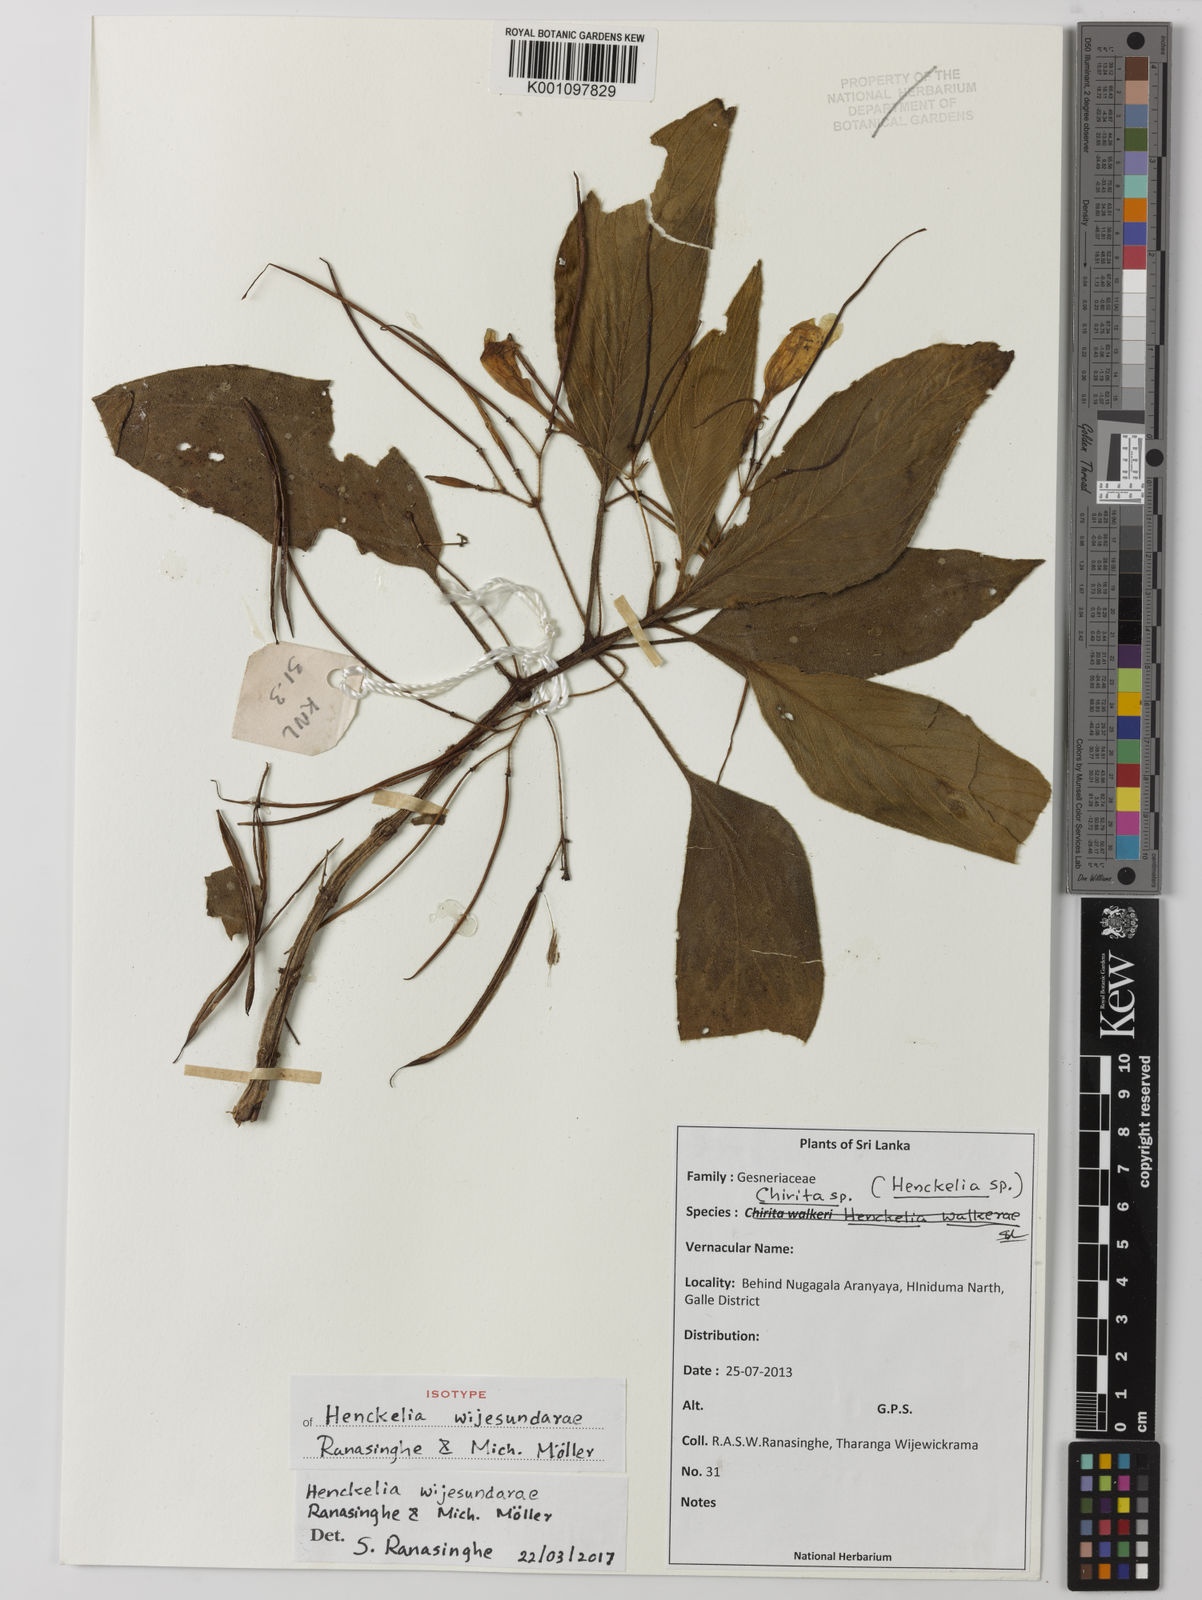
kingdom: Plantae
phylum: Tracheophyta
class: Magnoliopsida
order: Lamiales
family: Gesneriaceae
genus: Henckelia
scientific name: Henckelia
